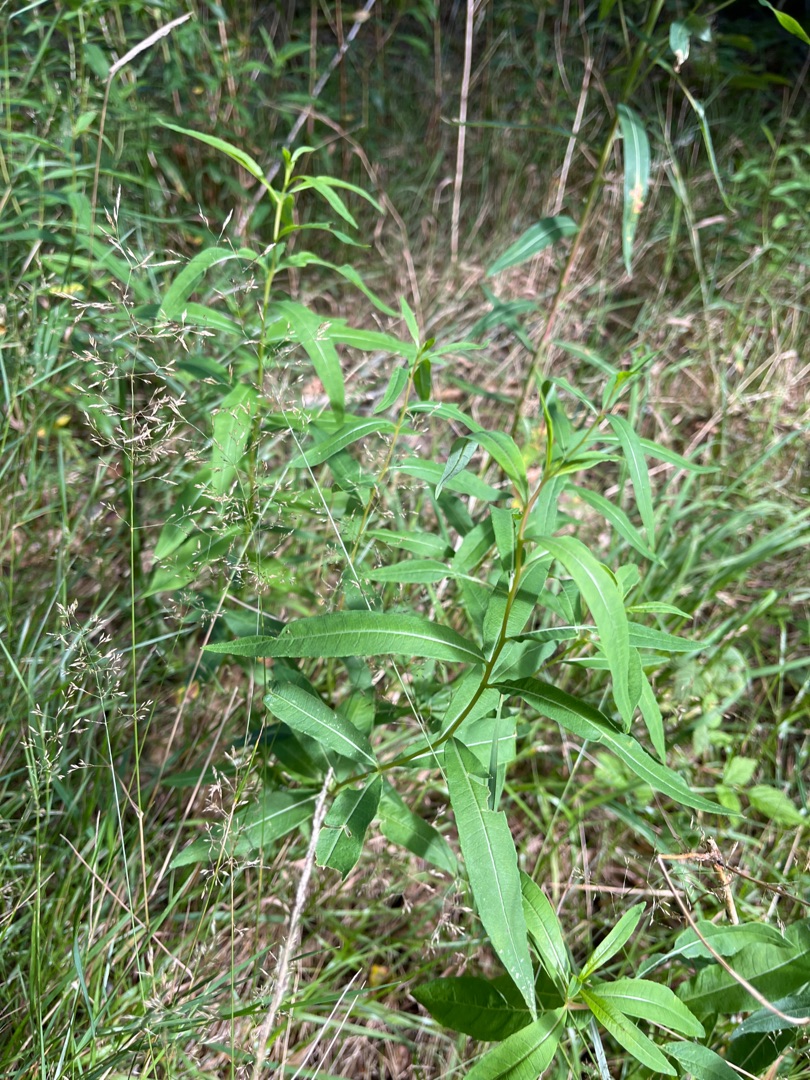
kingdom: Plantae
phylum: Tracheophyta
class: Magnoliopsida
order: Myrtales
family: Onagraceae
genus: Chamaenerion
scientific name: Chamaenerion angustifolium
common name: Gederams
